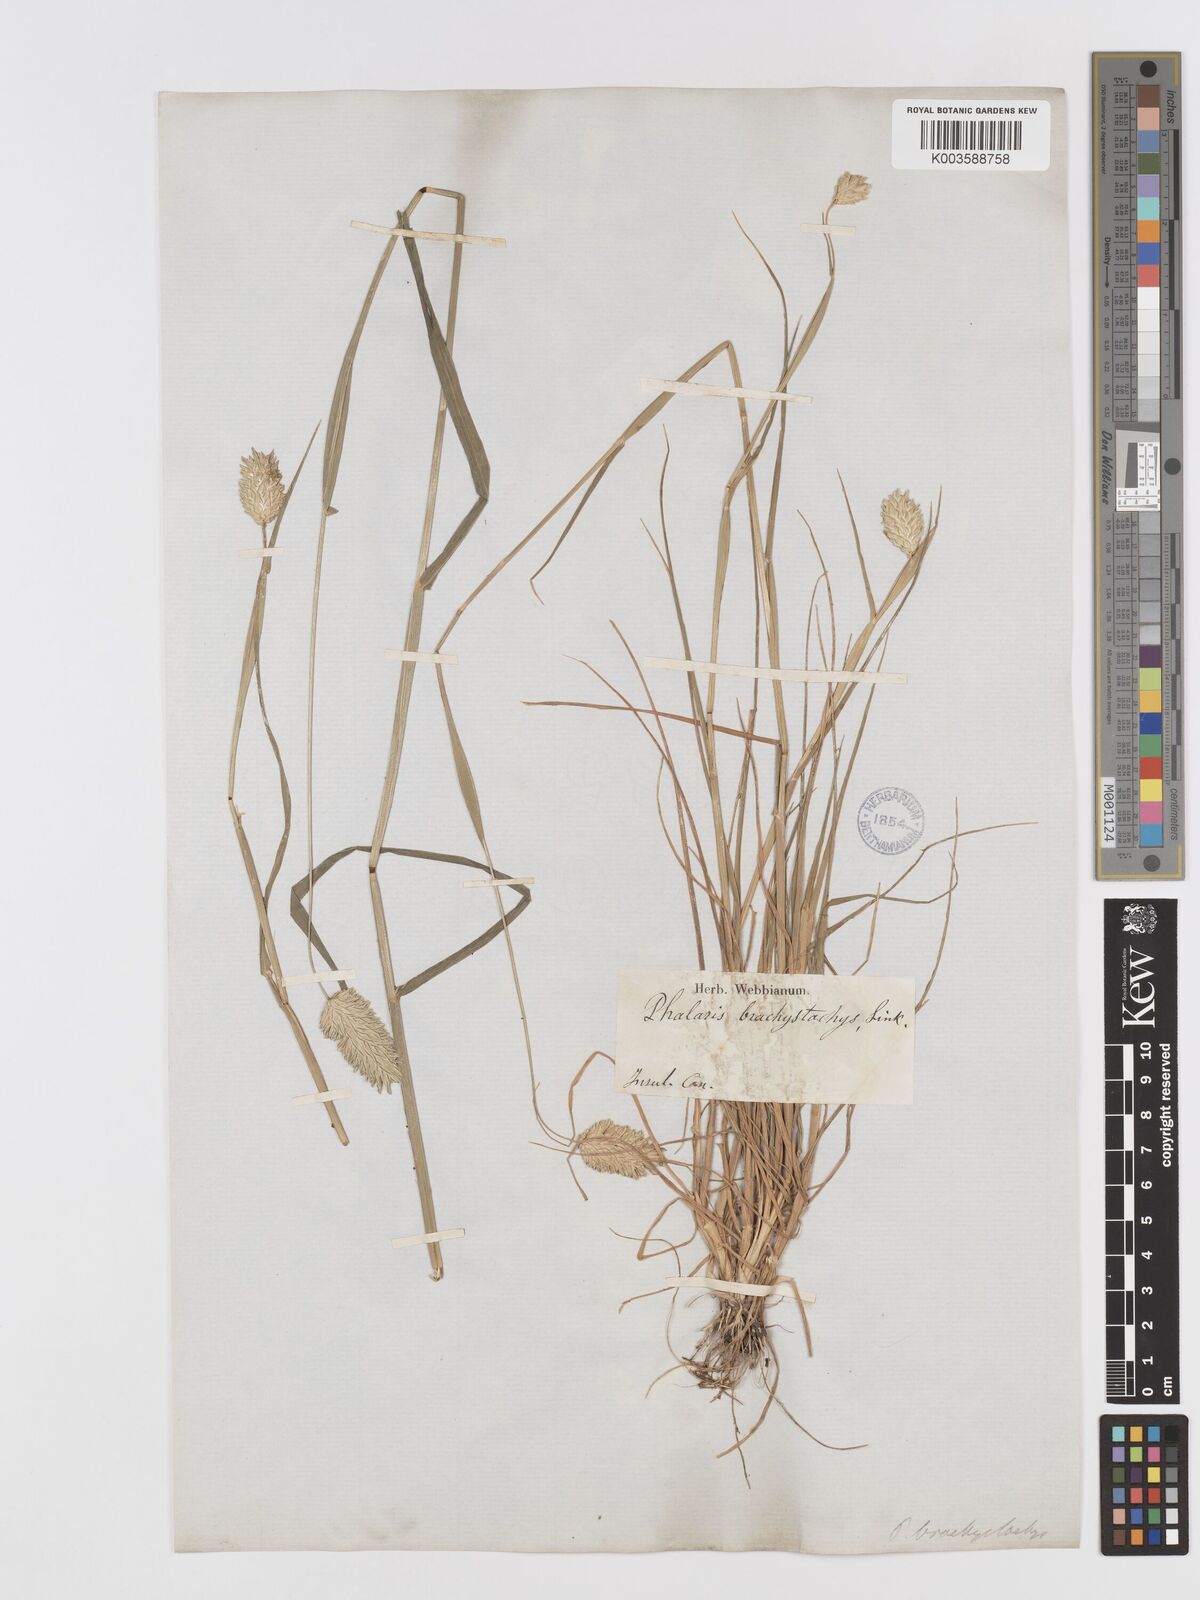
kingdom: Plantae
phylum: Tracheophyta
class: Liliopsida
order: Poales
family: Poaceae
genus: Phalaris
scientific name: Phalaris brachystachys
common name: Confused canary-grass
